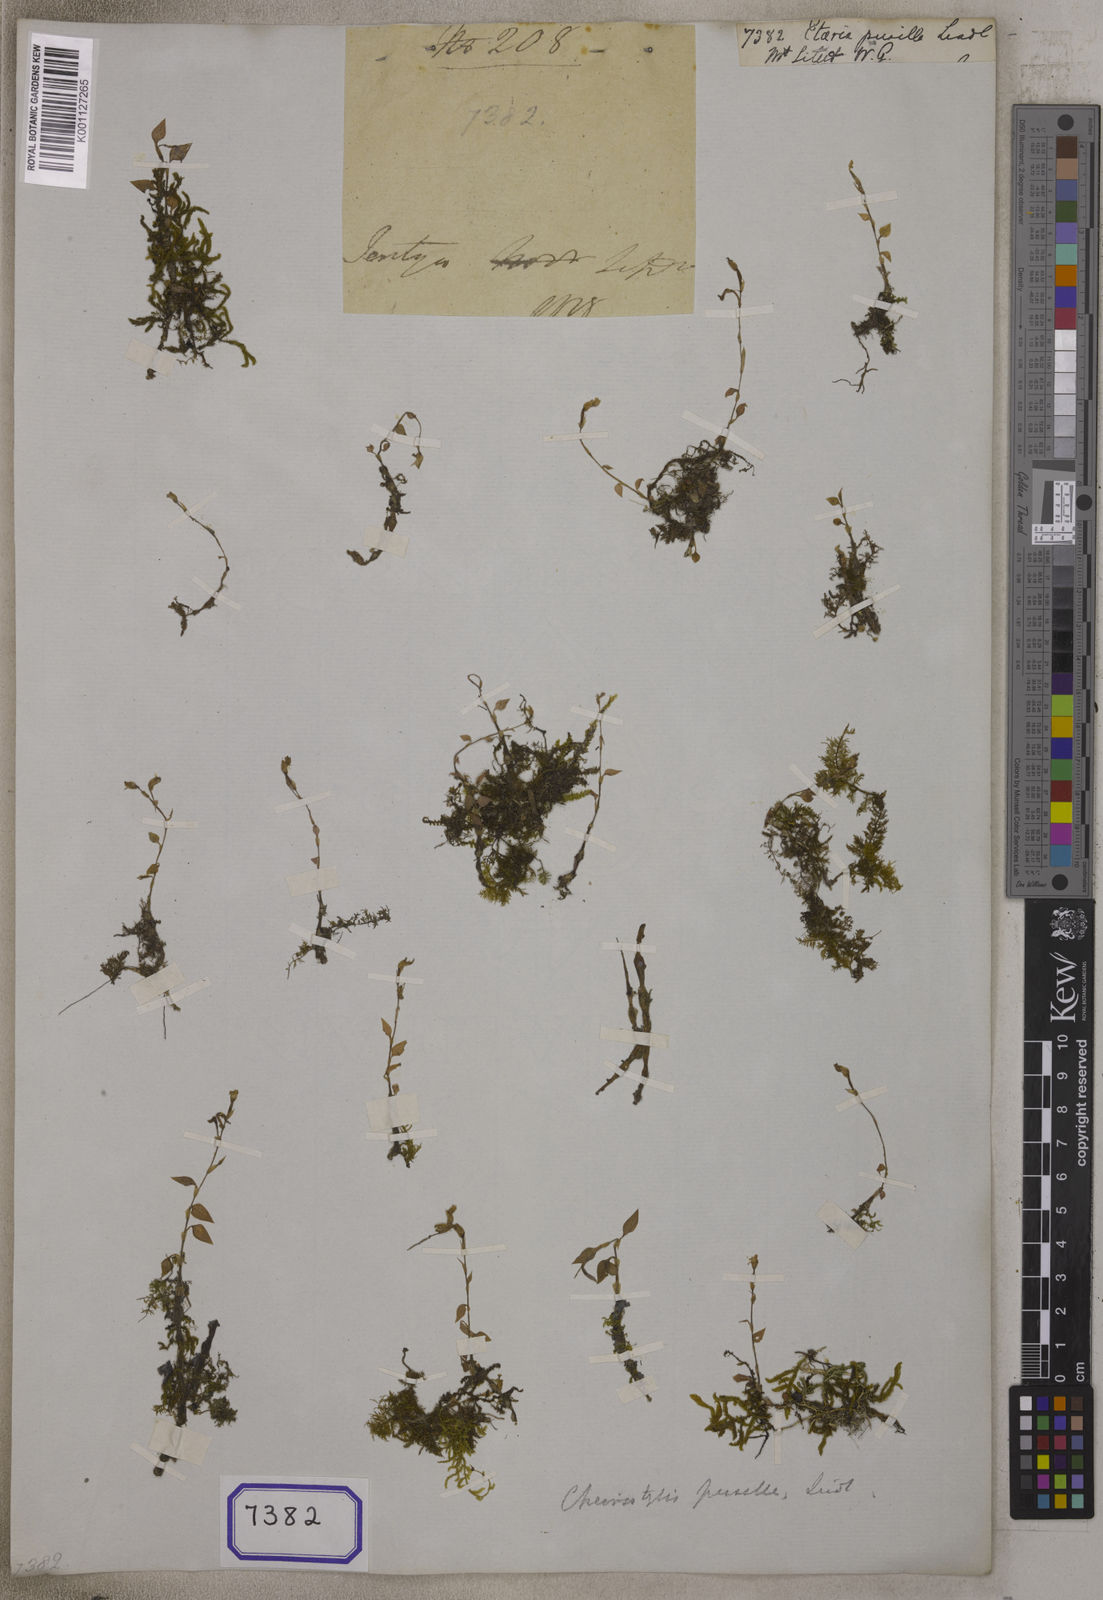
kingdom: Plantae
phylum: Tracheophyta
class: Liliopsida
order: Asparagales
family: Orchidaceae
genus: Hetaeria
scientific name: Hetaeria
